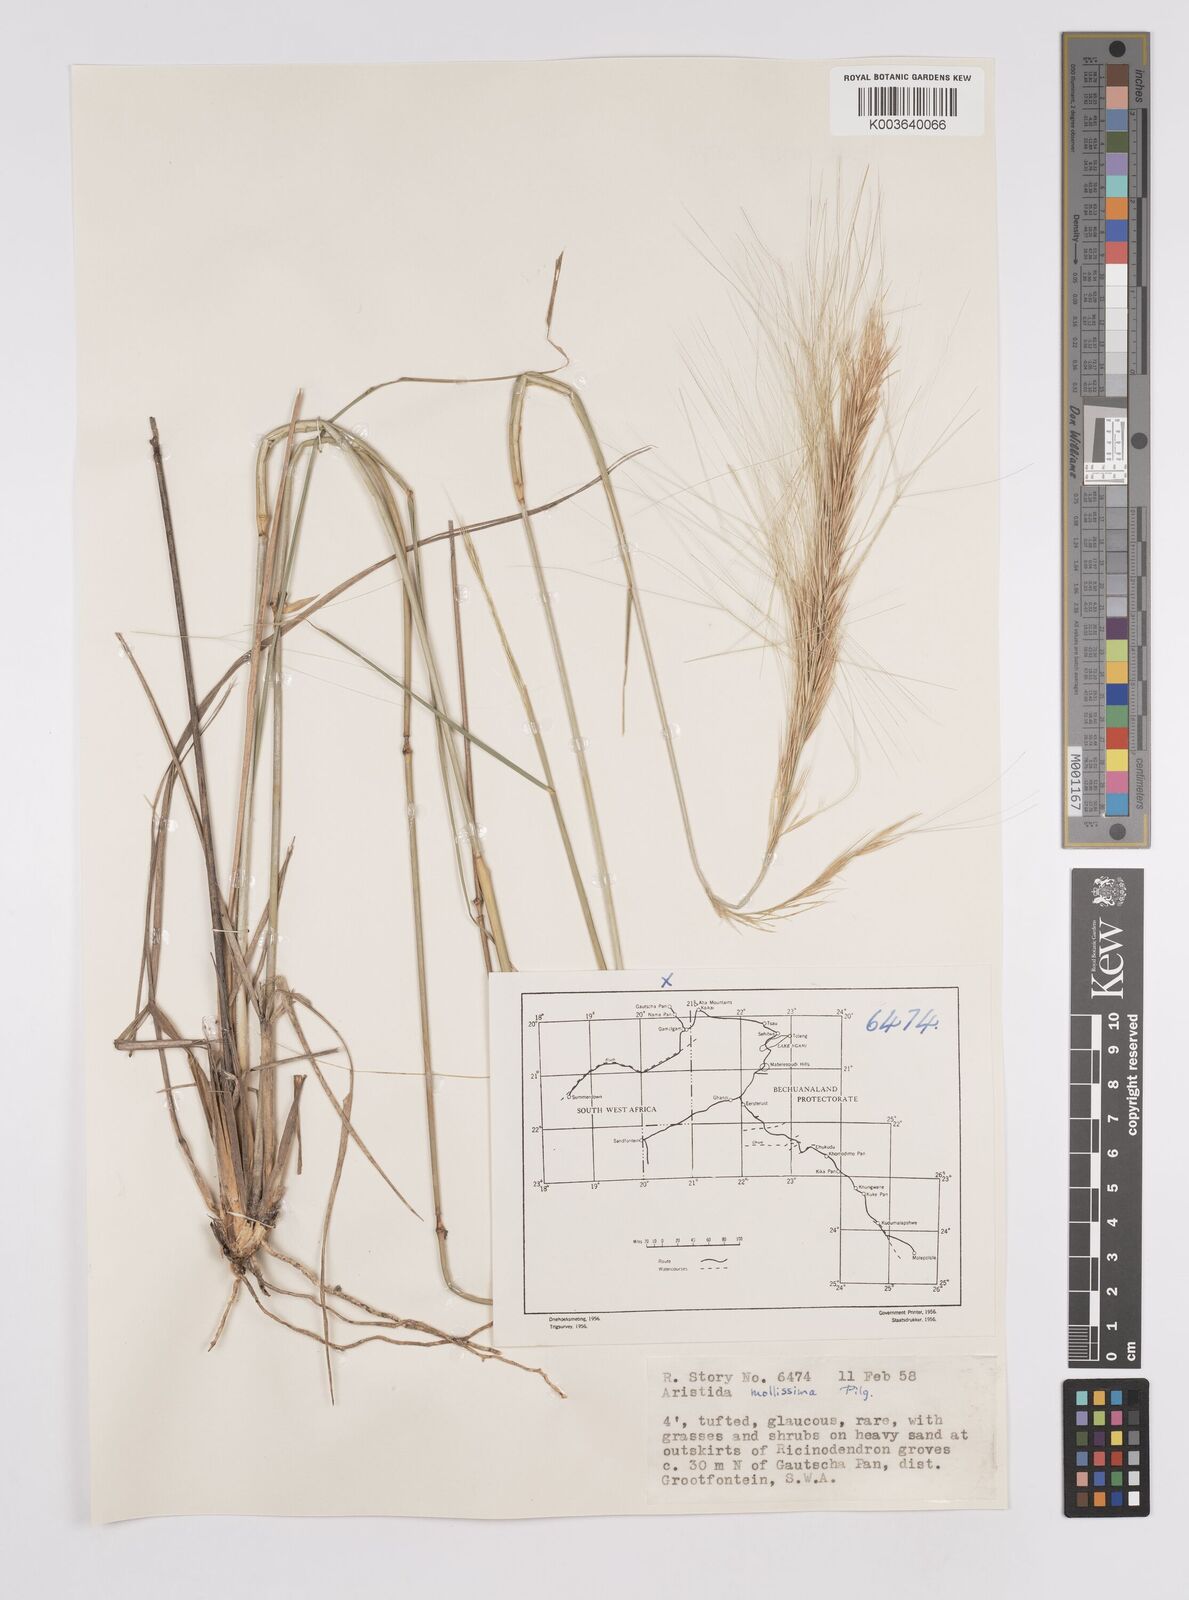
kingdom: Plantae
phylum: Tracheophyta
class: Liliopsida
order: Poales
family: Poaceae
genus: Aristida
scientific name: Aristida mollissima
